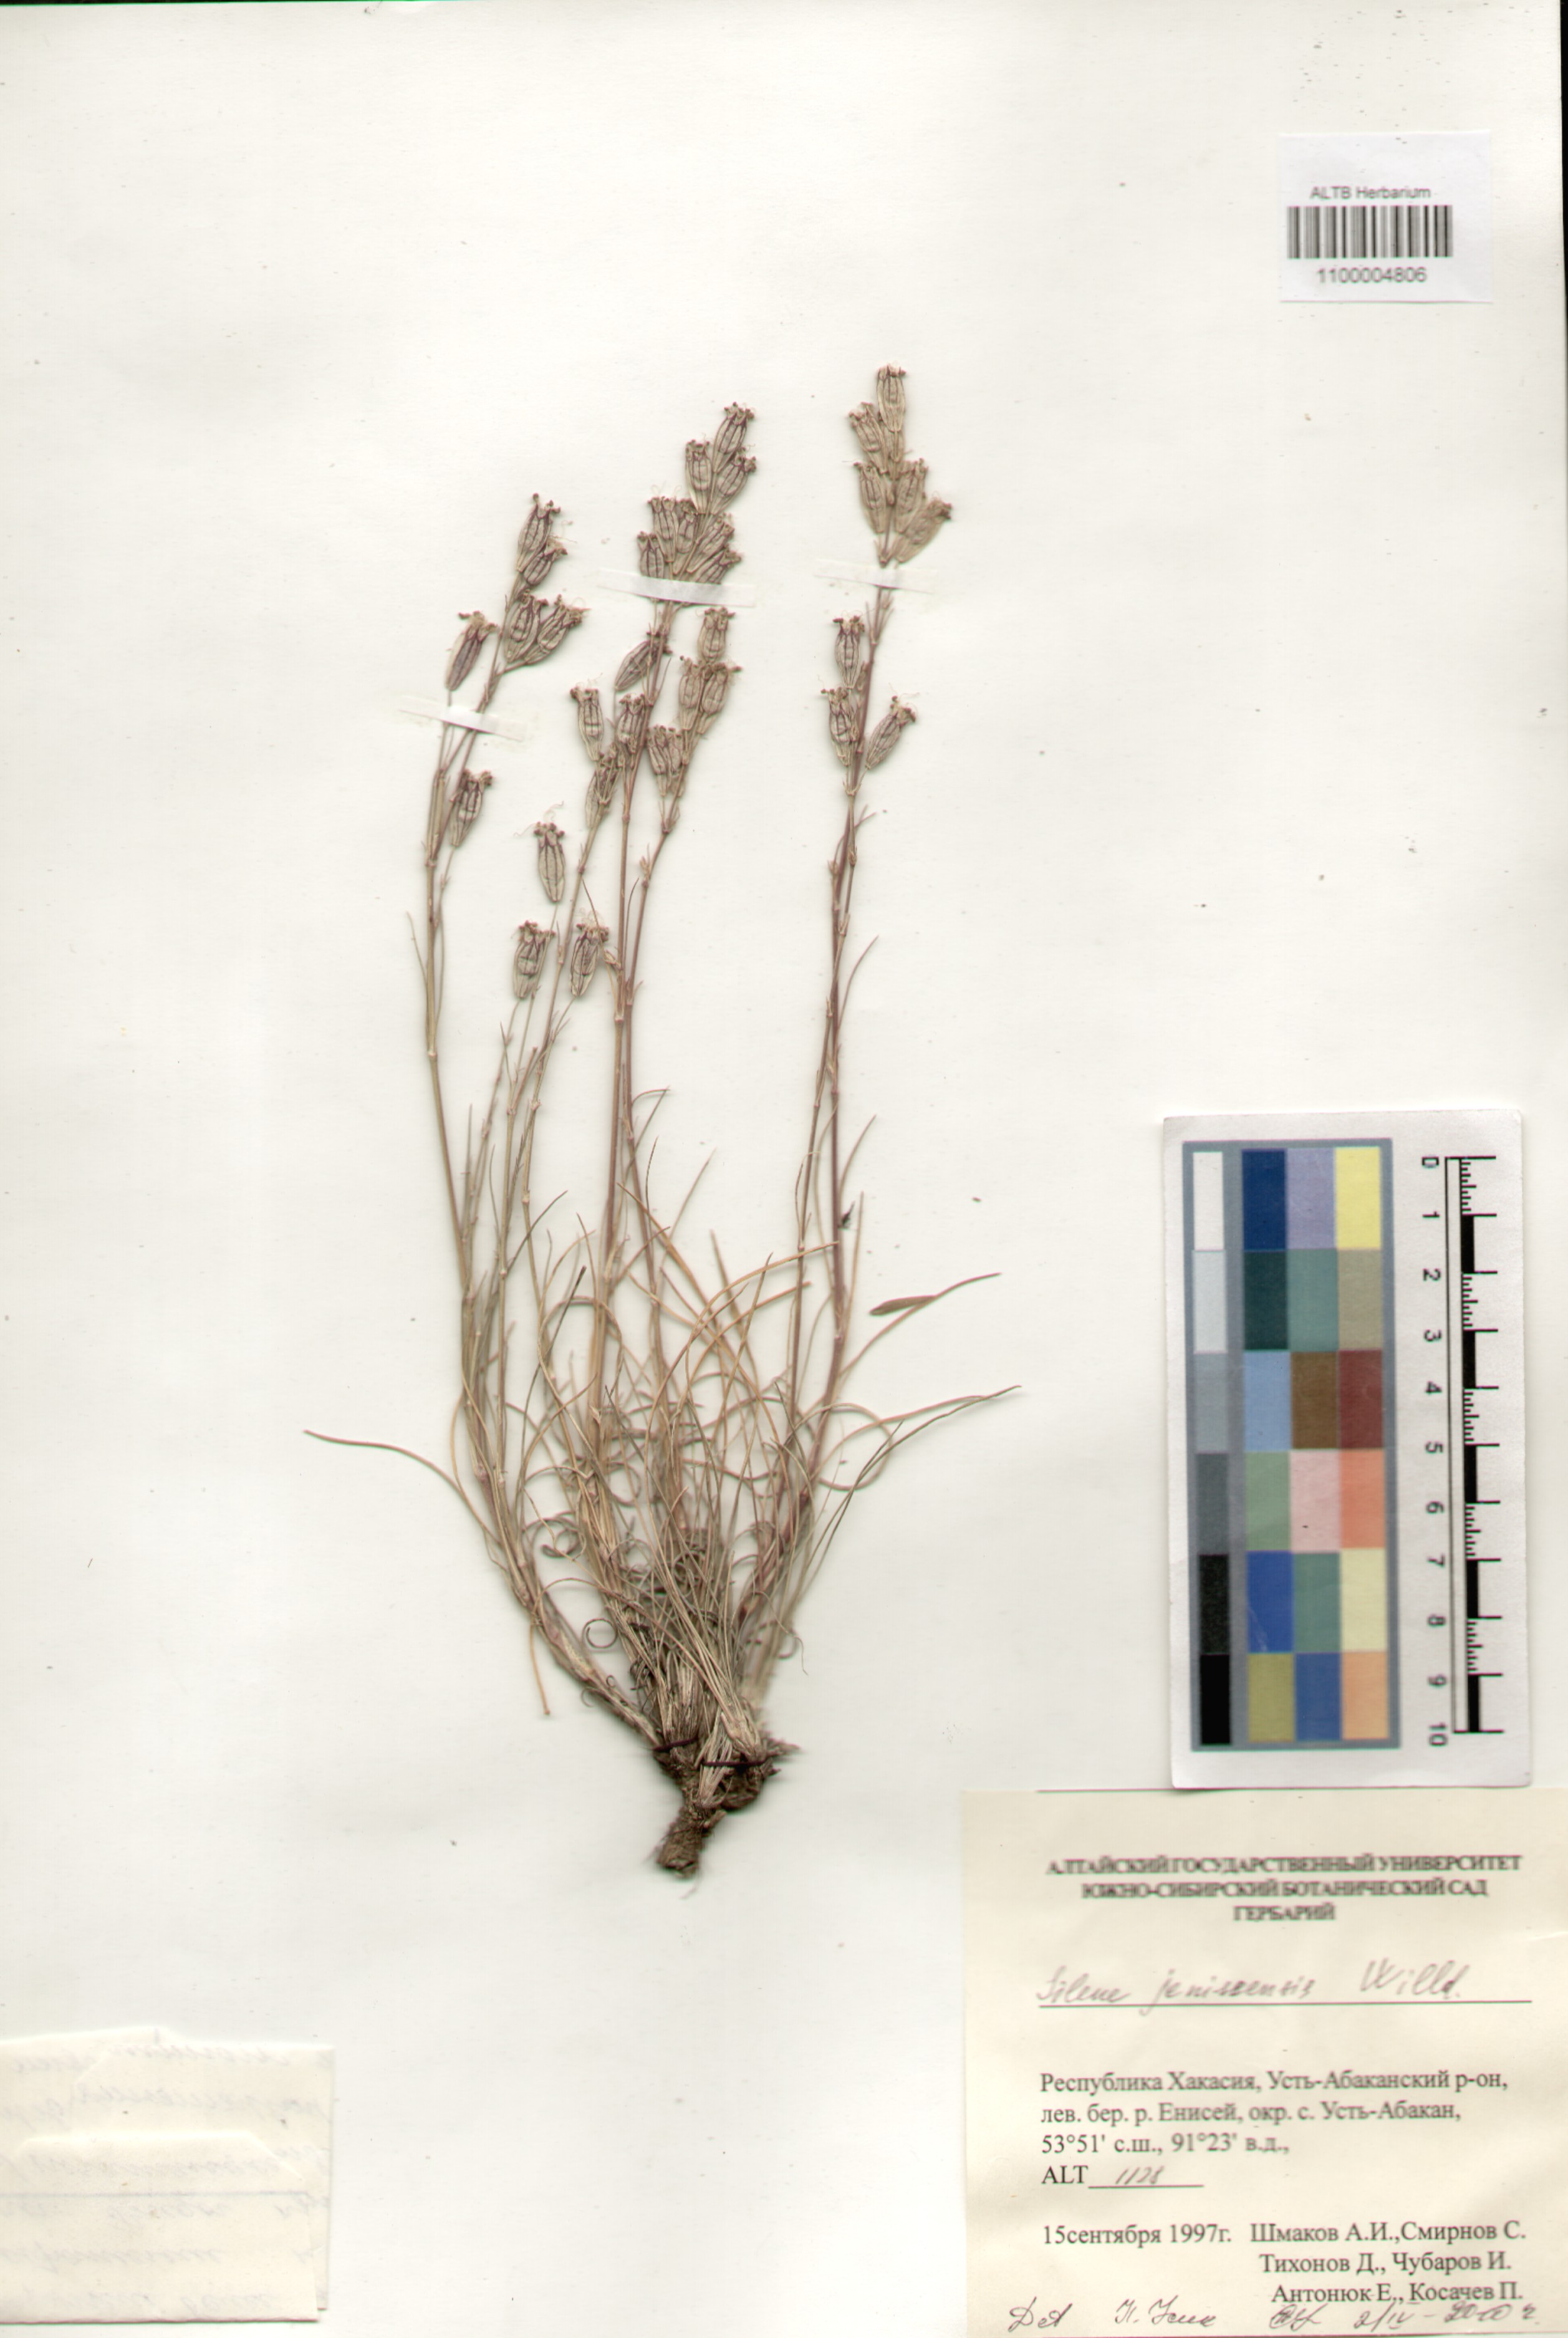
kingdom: Plantae
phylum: Tracheophyta
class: Magnoliopsida
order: Caryophyllales
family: Caryophyllaceae
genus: Silene
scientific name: Silene jeniseensis
